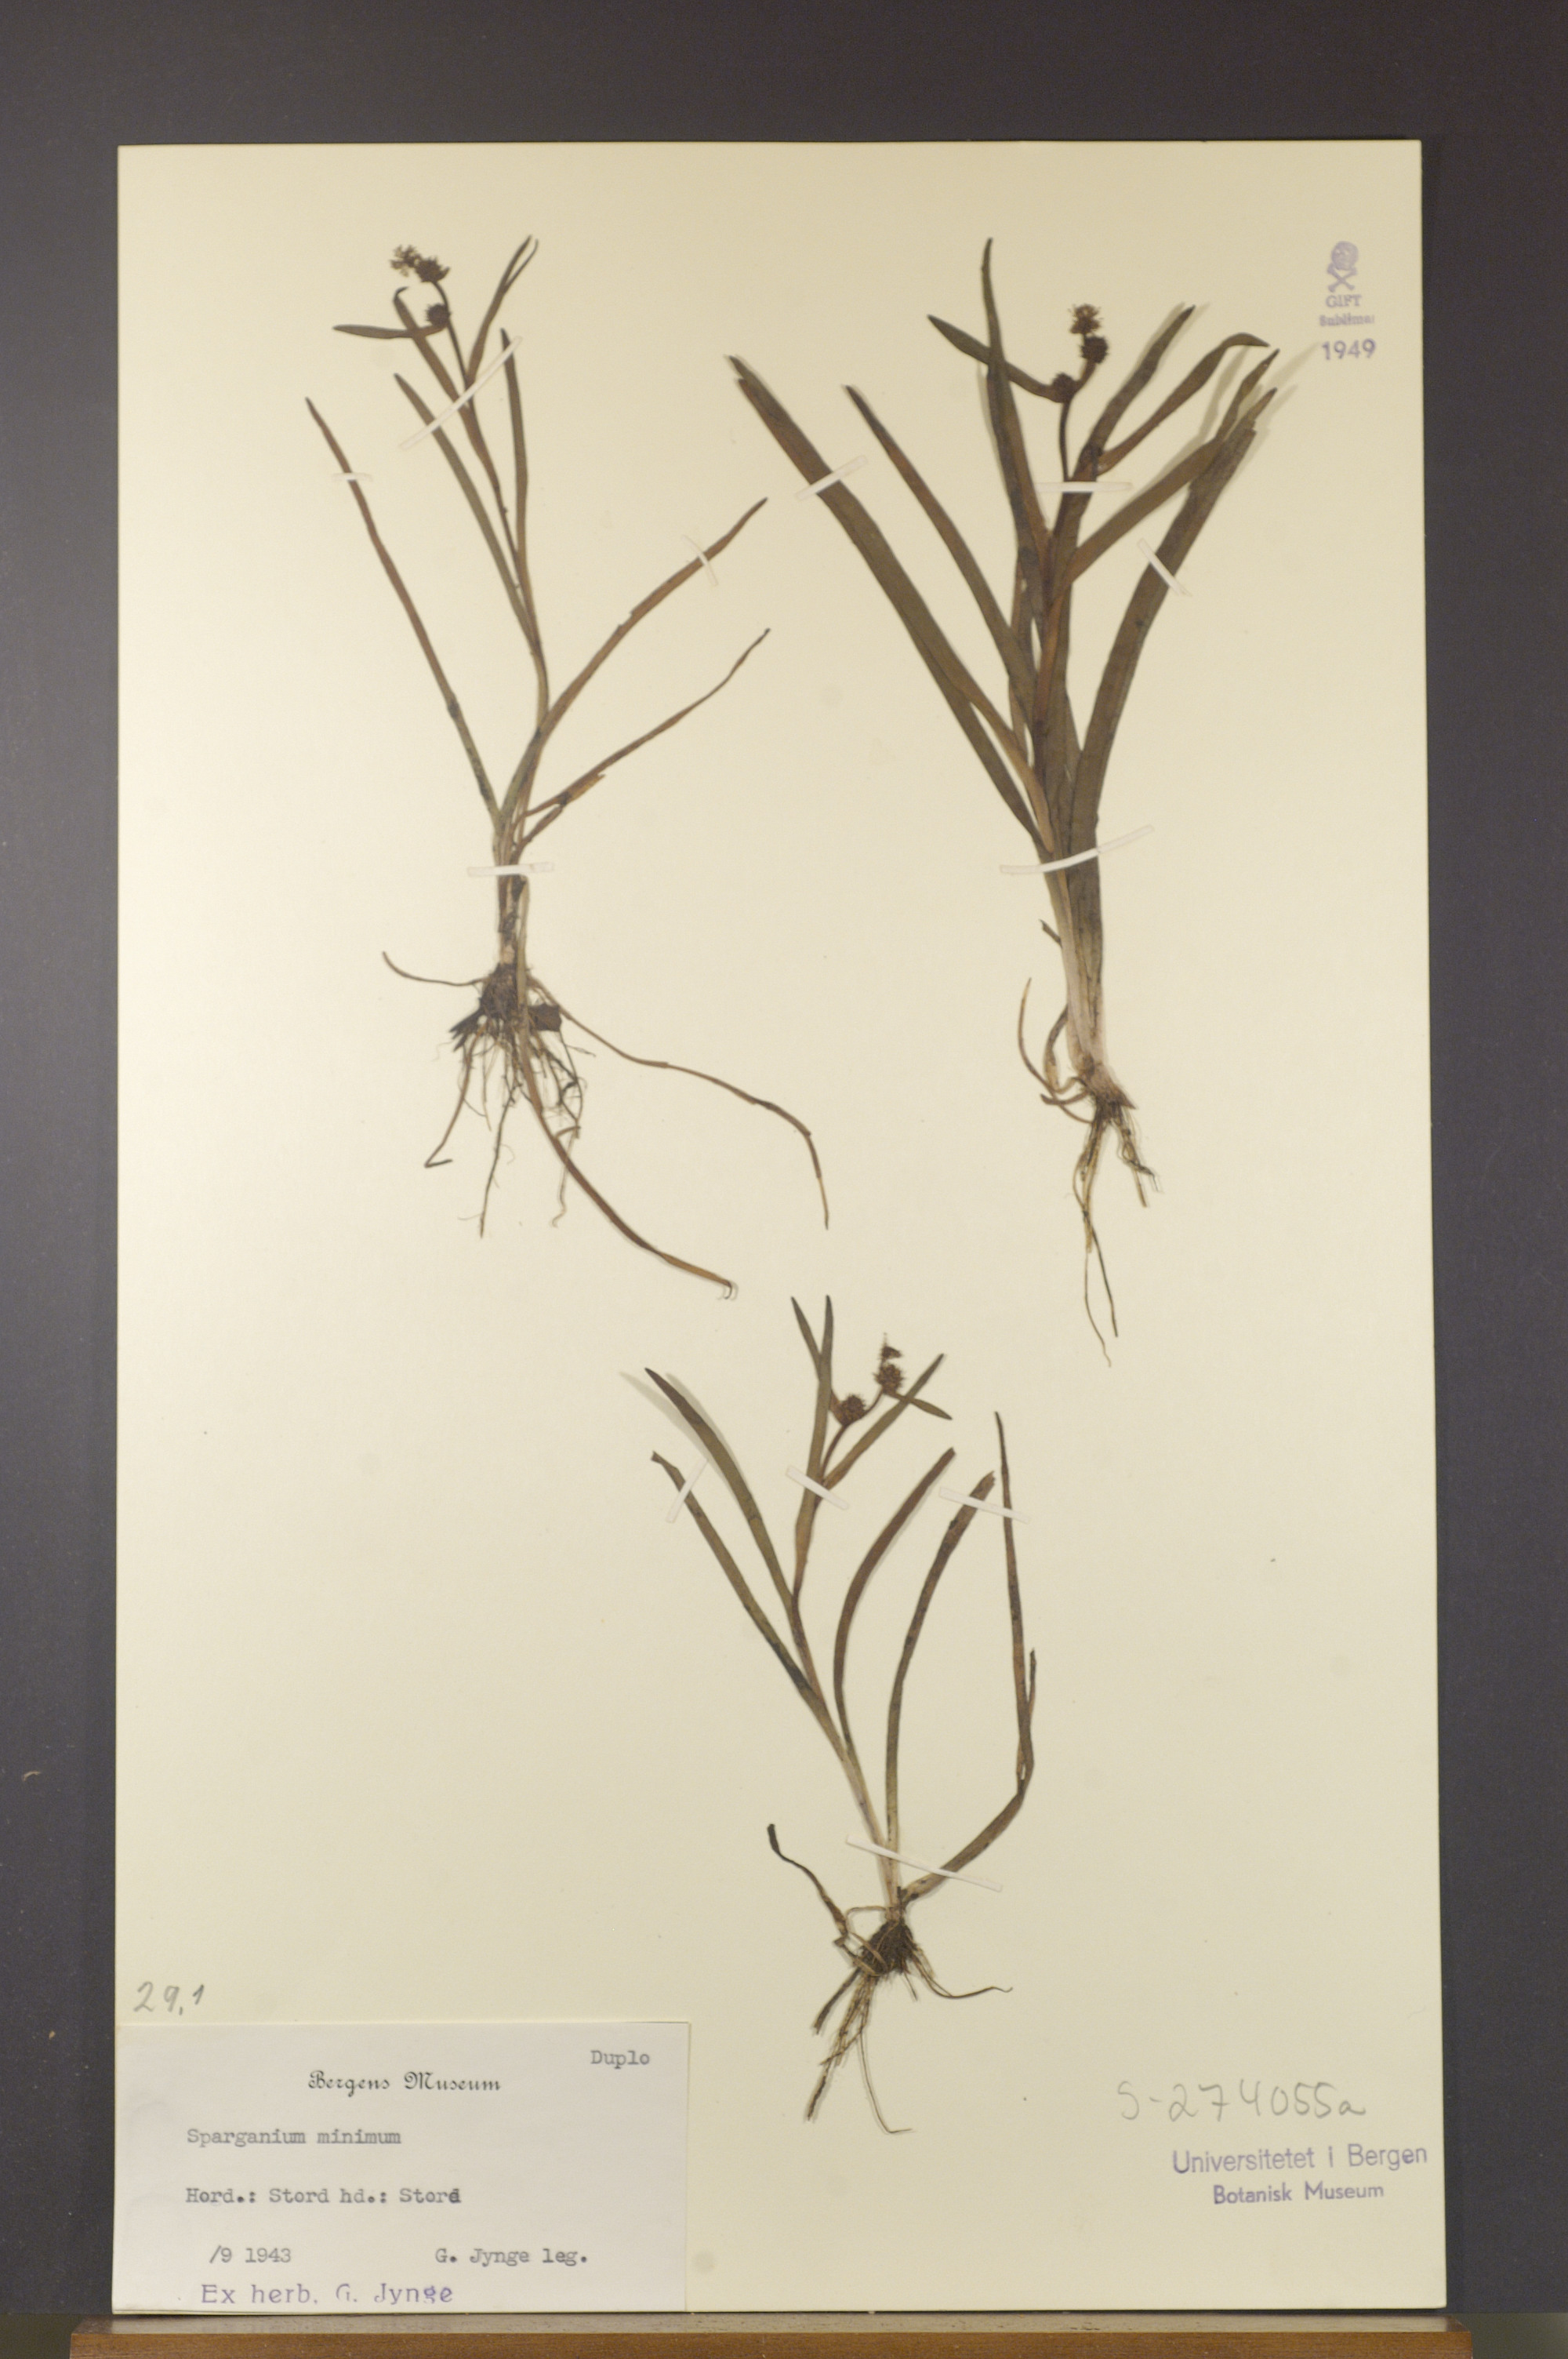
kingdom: Plantae
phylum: Tracheophyta
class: Liliopsida
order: Poales
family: Typhaceae
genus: Sparganium
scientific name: Sparganium natans
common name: Least bur-reed
